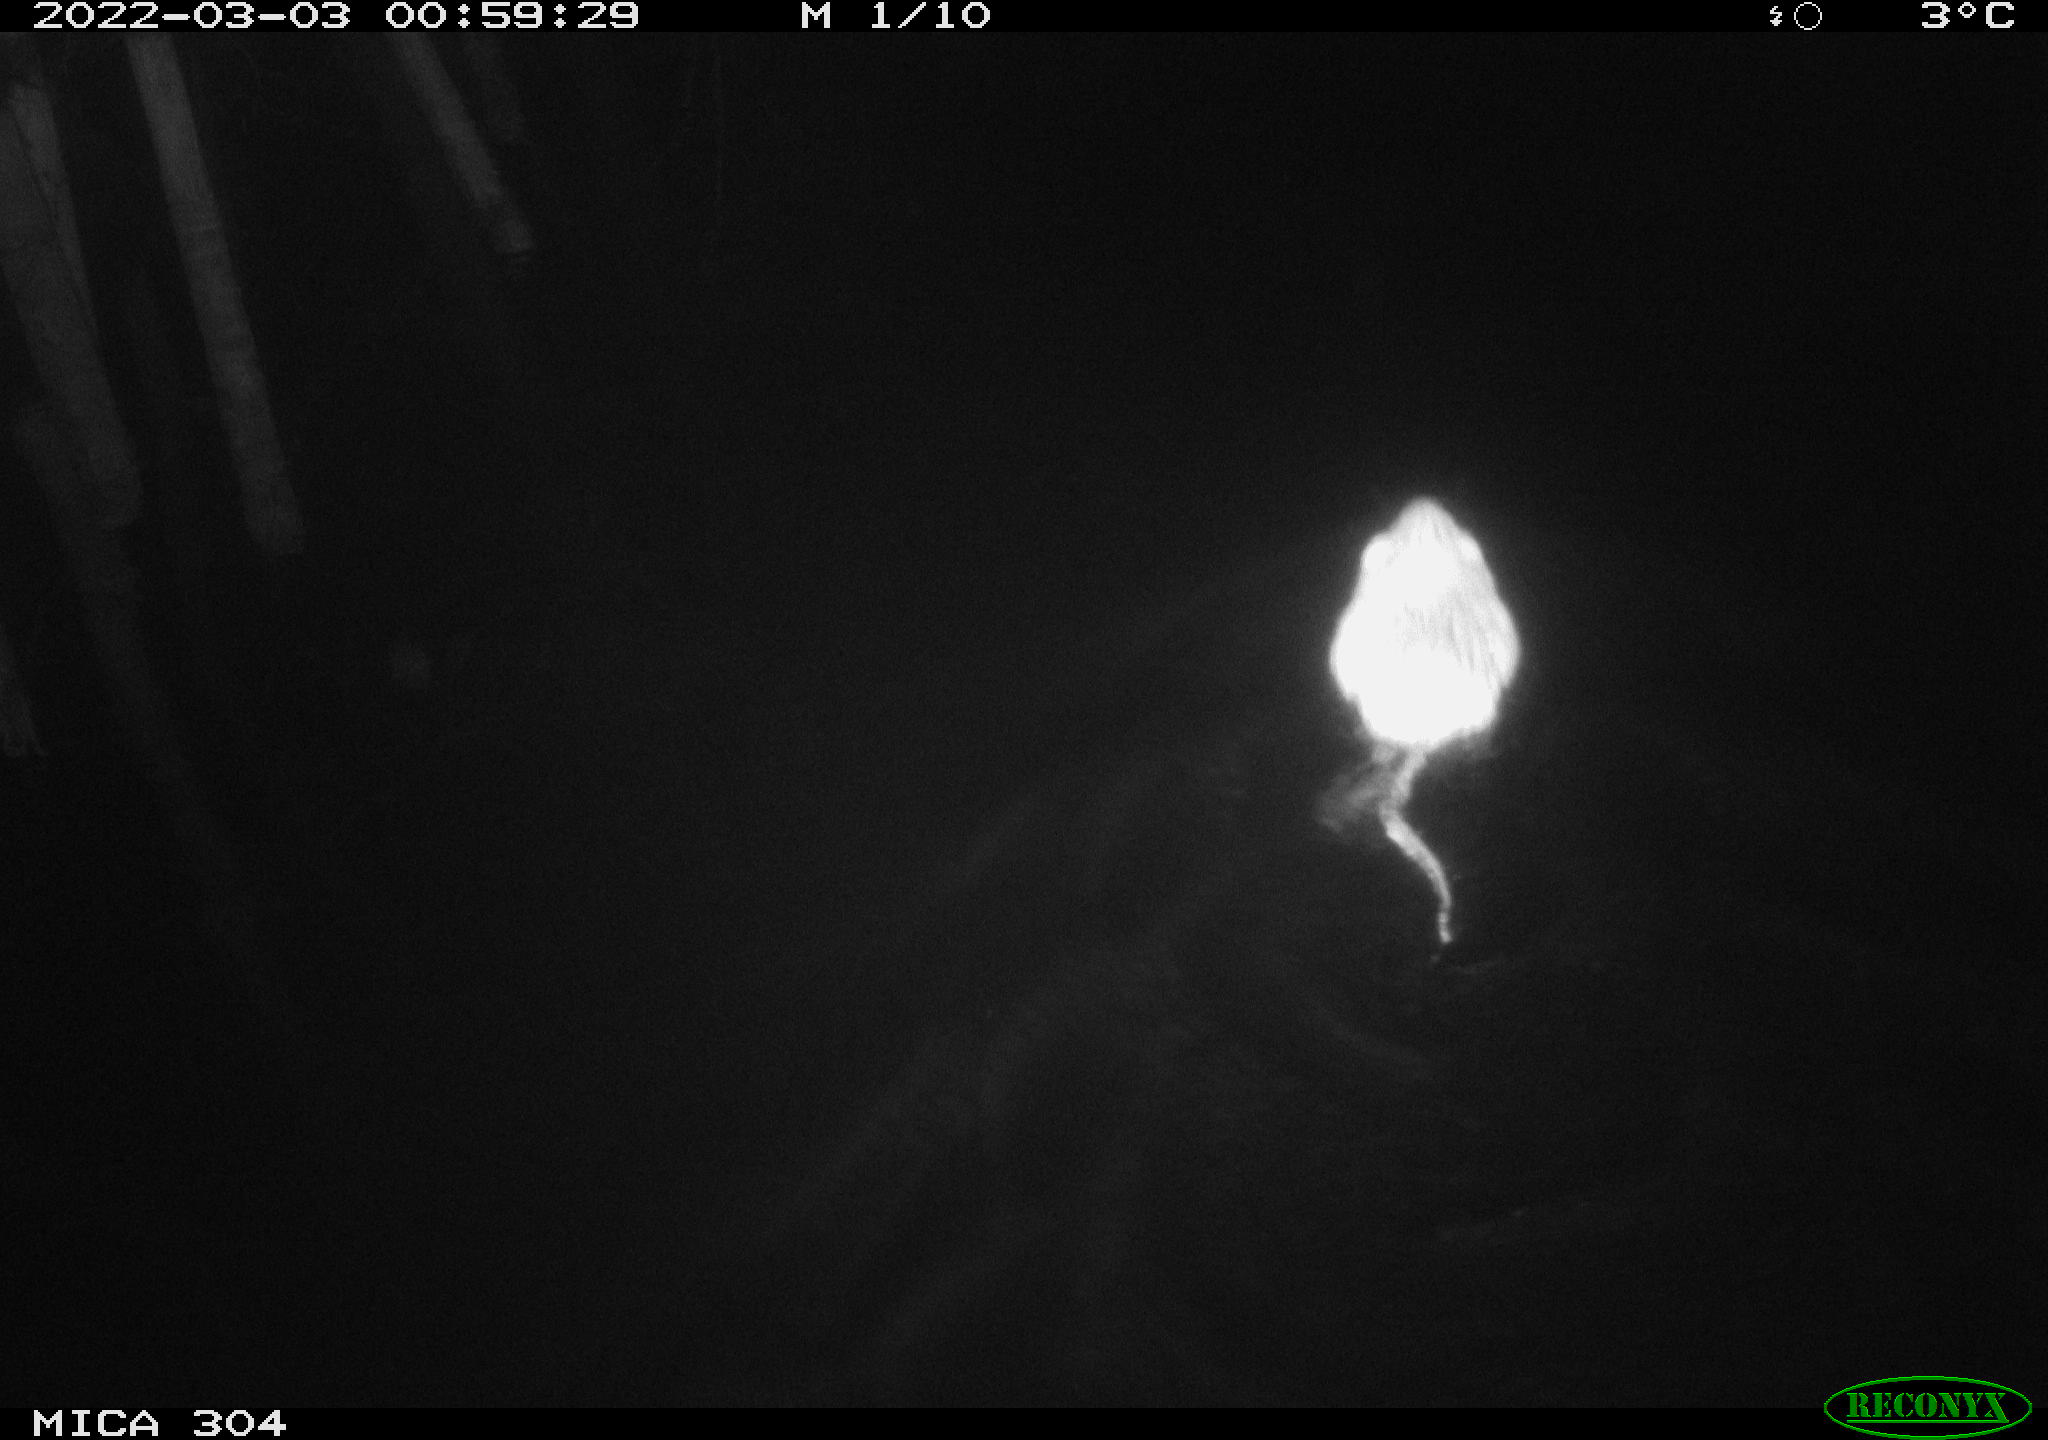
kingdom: Animalia
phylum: Chordata
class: Mammalia
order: Rodentia
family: Cricetidae
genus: Ondatra
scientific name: Ondatra zibethicus
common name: Muskrat
